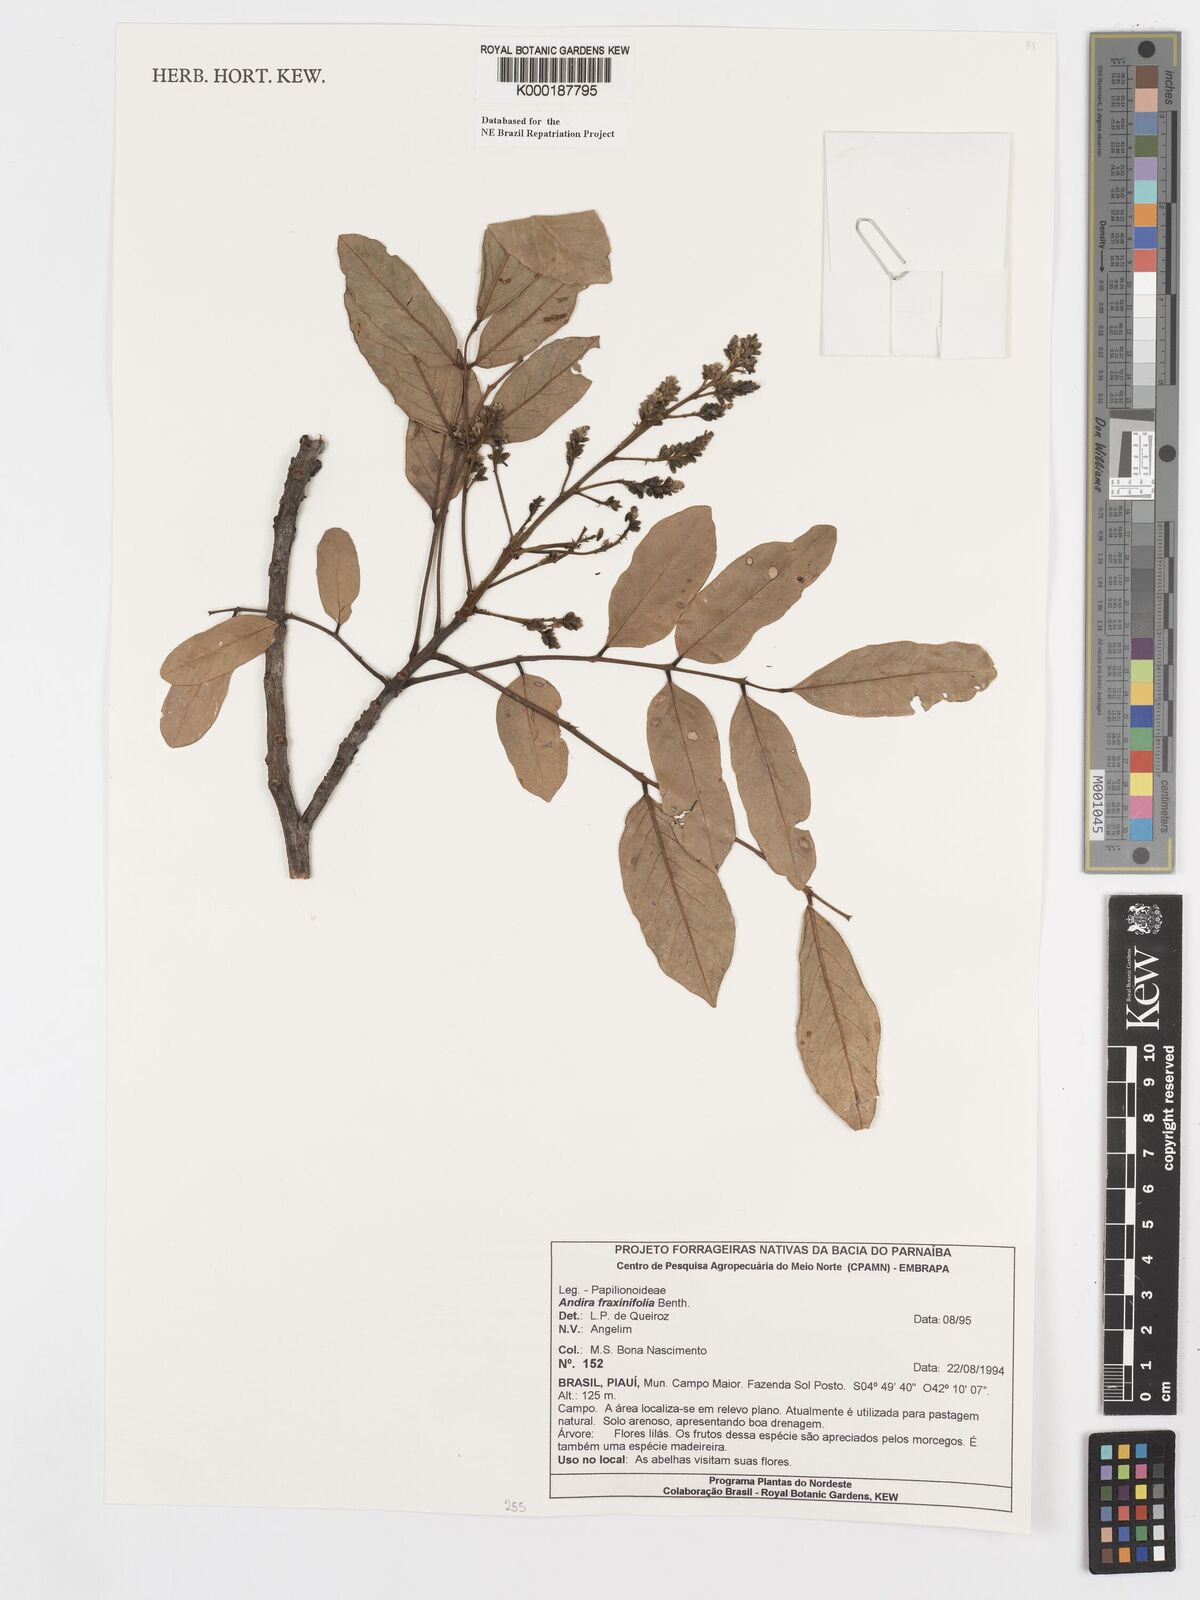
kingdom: Plantae
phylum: Tracheophyta
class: Magnoliopsida
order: Fabales
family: Fabaceae
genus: Andira
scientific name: Andira fraxinifolia
